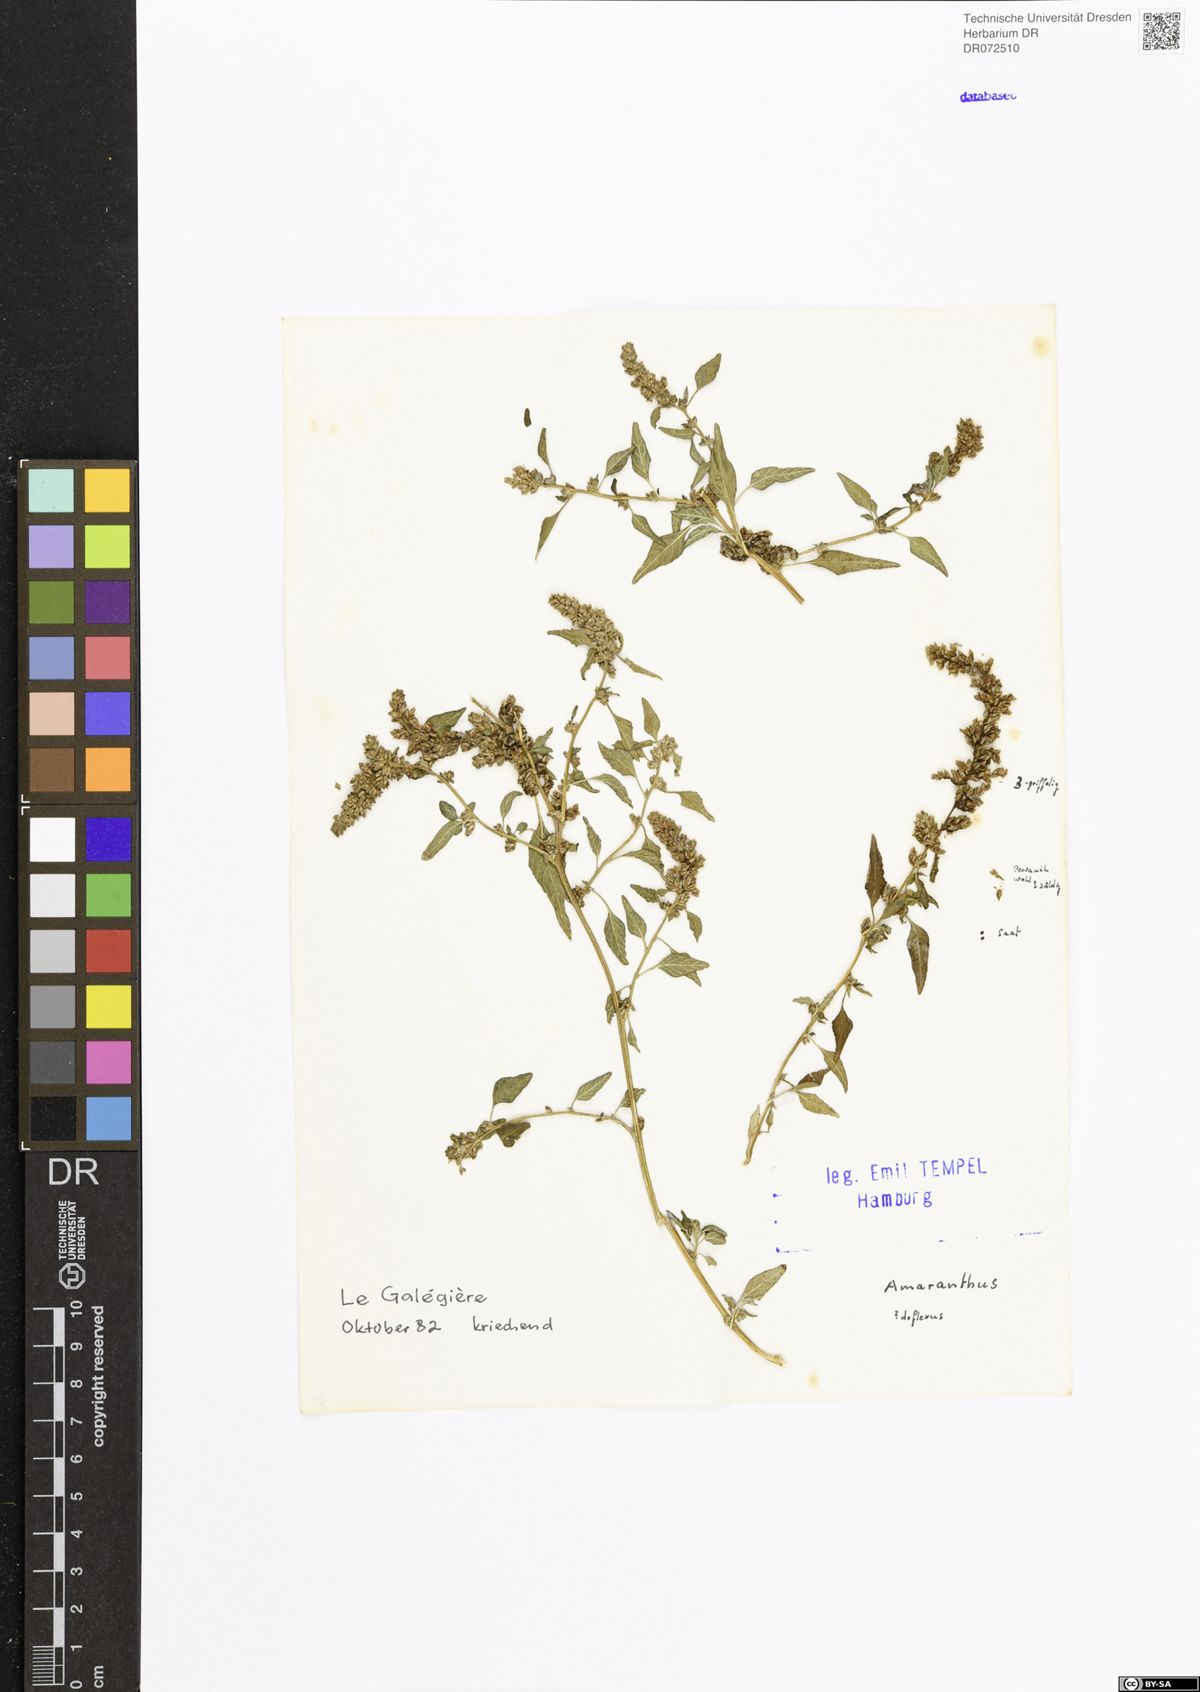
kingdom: Plantae
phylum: Tracheophyta
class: Magnoliopsida
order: Caryophyllales
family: Amaranthaceae
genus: Amaranthus
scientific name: Amaranthus deflexus
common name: Perennial pigweed
